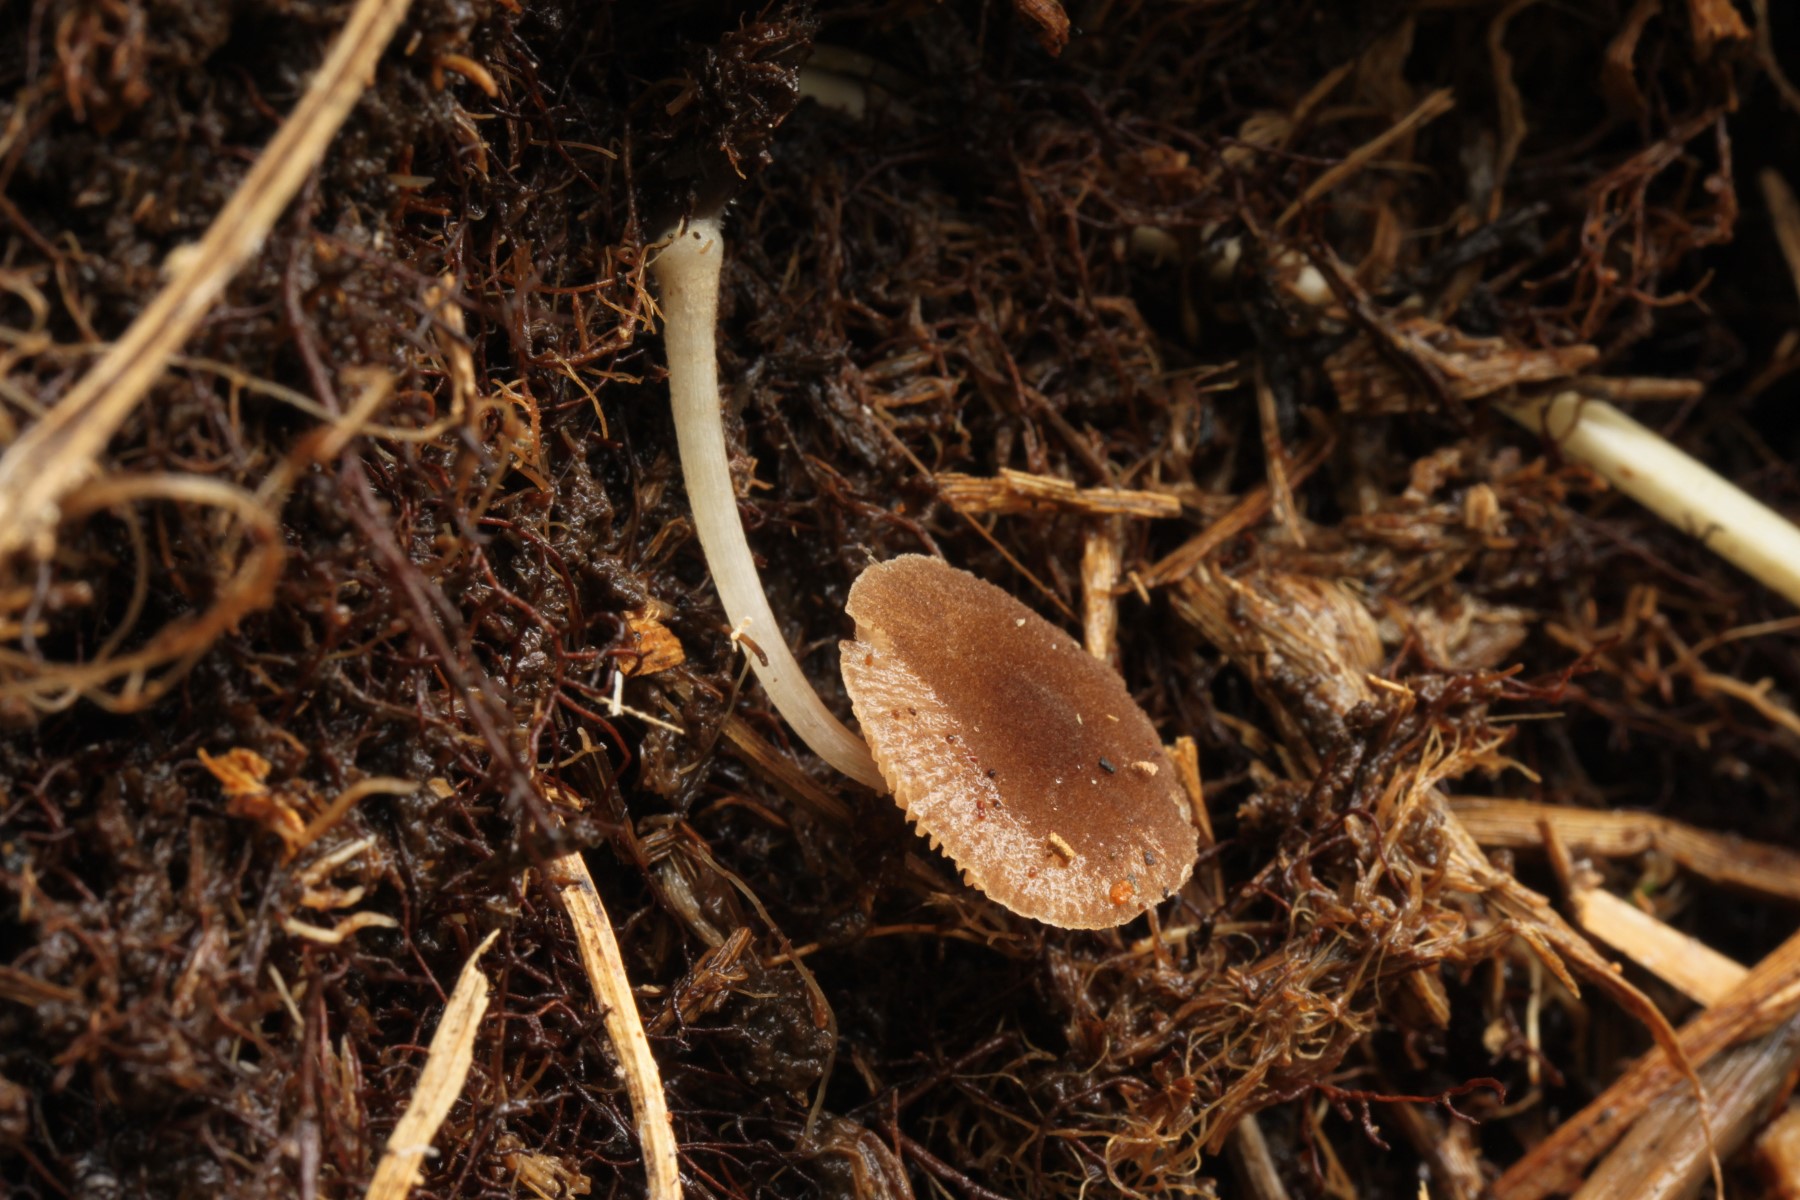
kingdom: Fungi
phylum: Basidiomycota
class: Agaricomycetes
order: Agaricales
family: Pluteaceae
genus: Pluteus
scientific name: Pluteus inflatus
